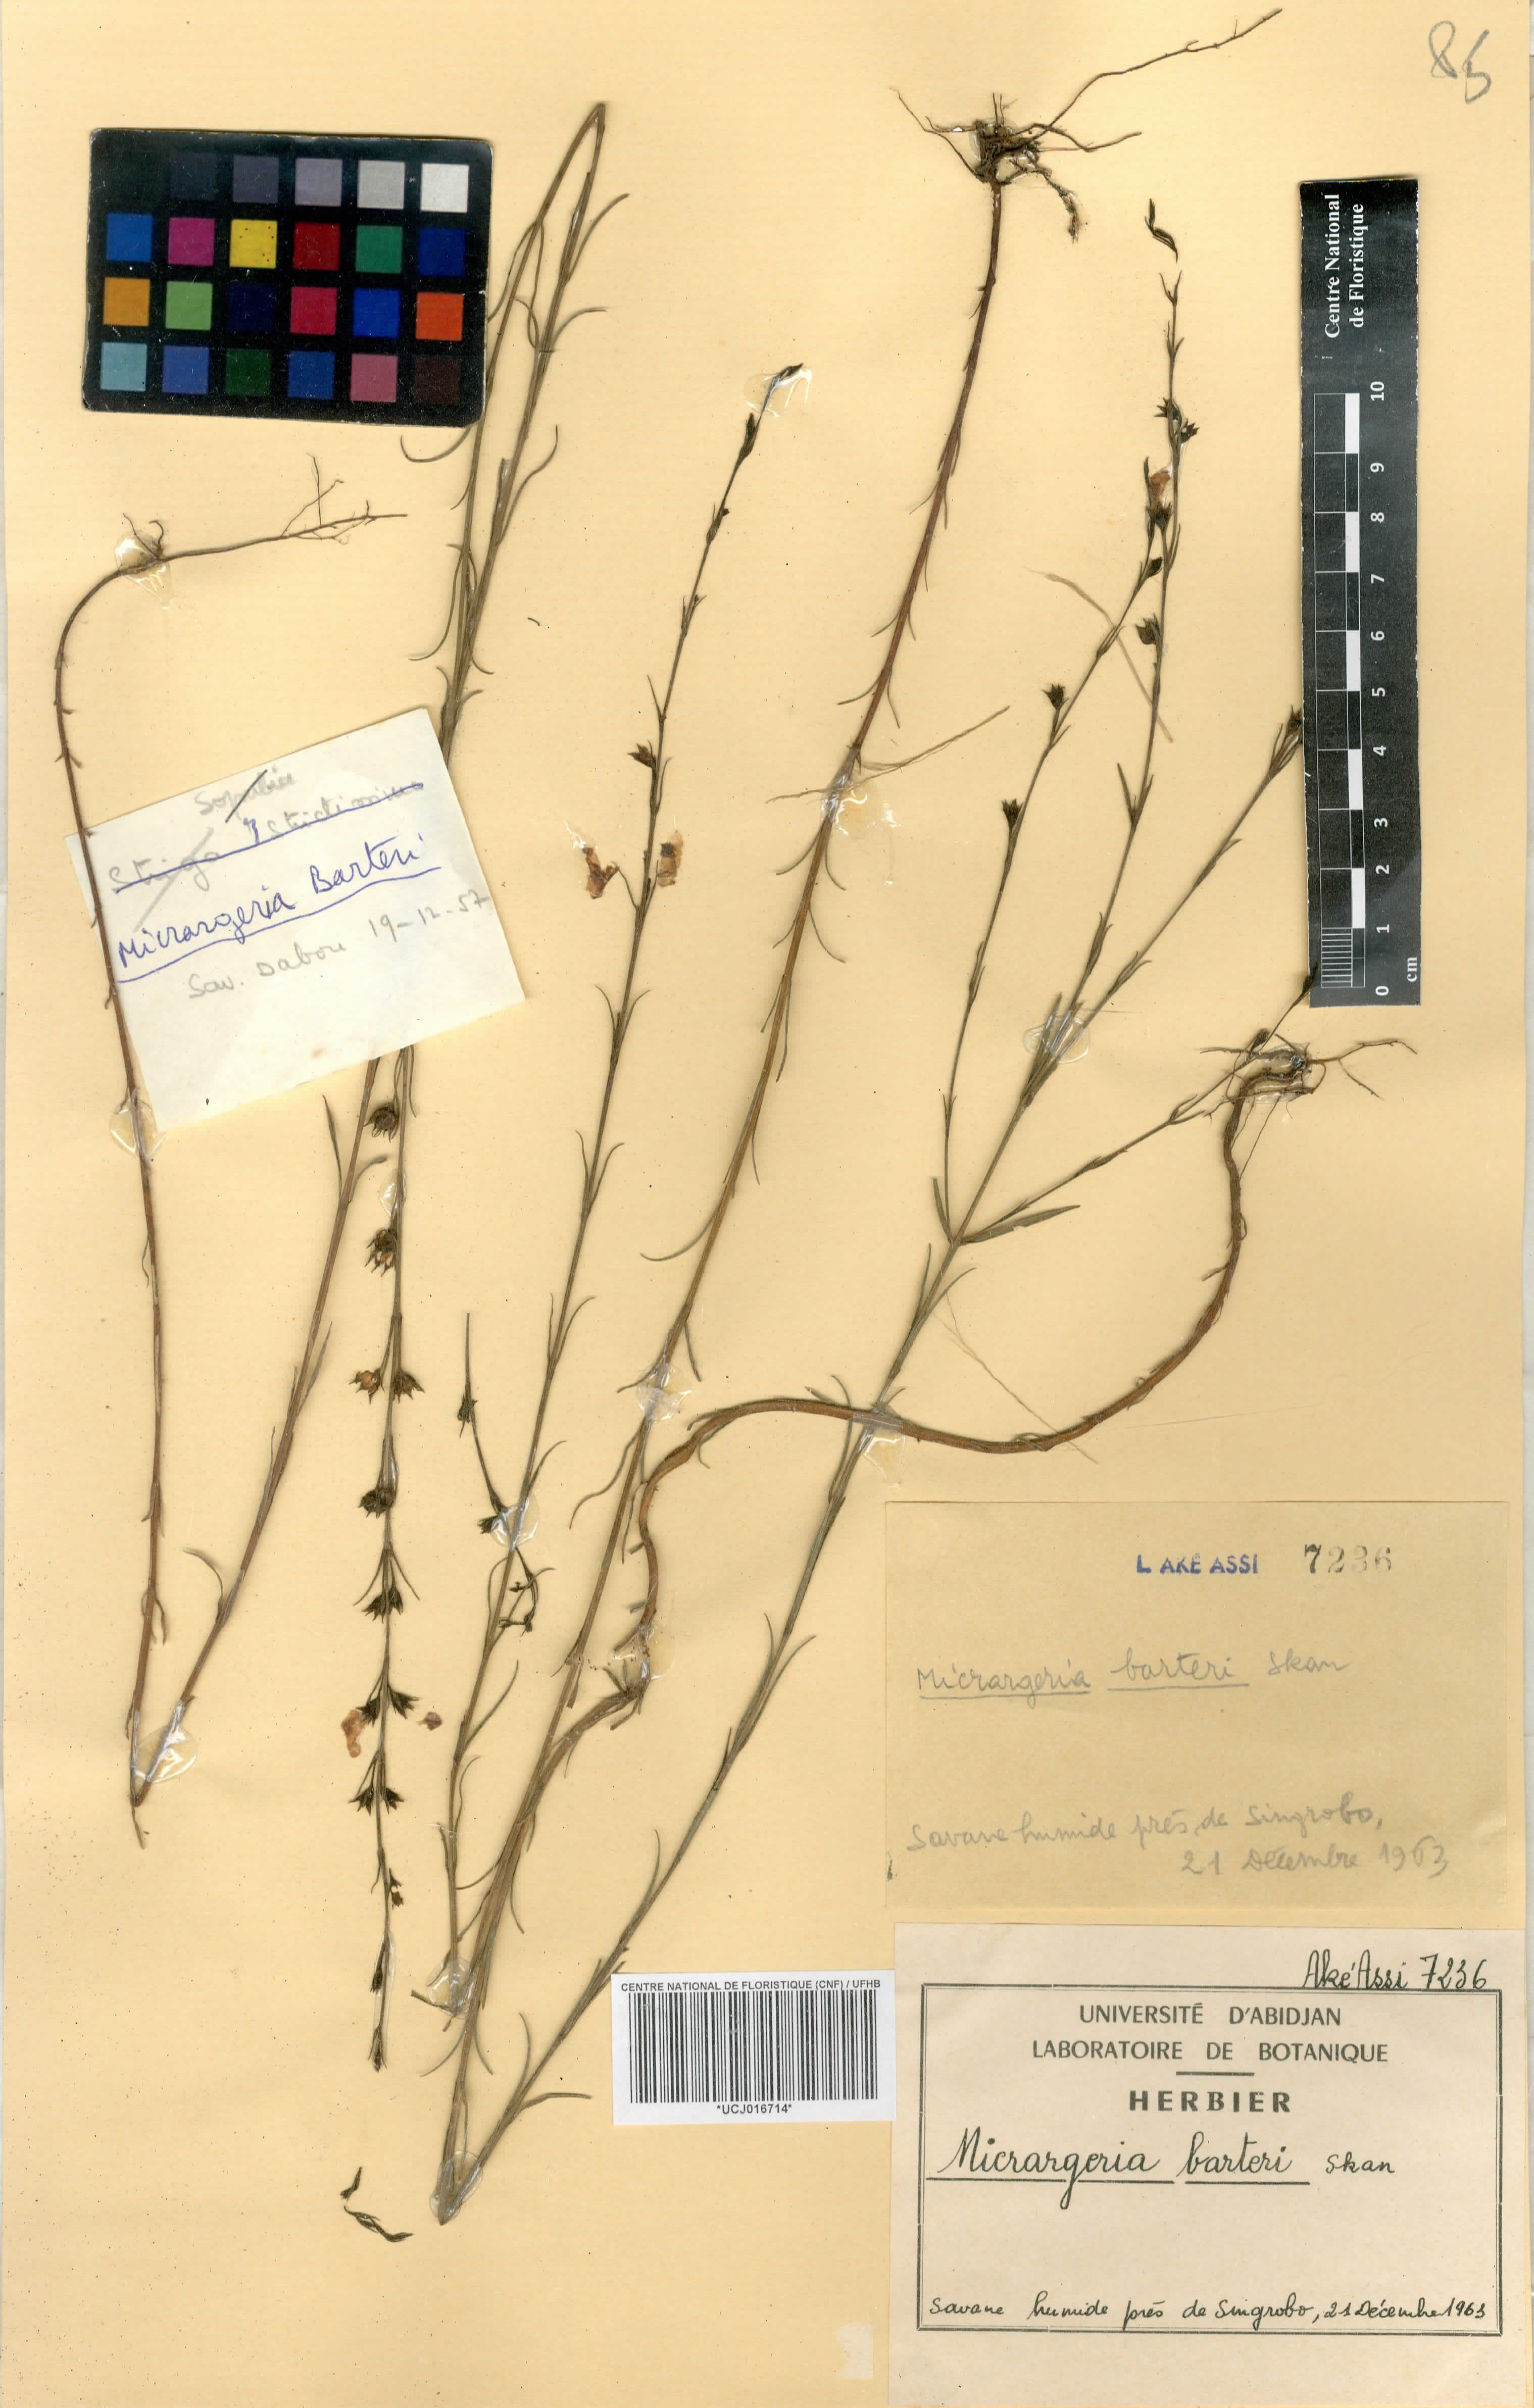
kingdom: Plantae
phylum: Tracheophyta
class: Magnoliopsida
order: Lamiales
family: Orobanchaceae
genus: Micrargeria
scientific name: Micrargeria filiformis
